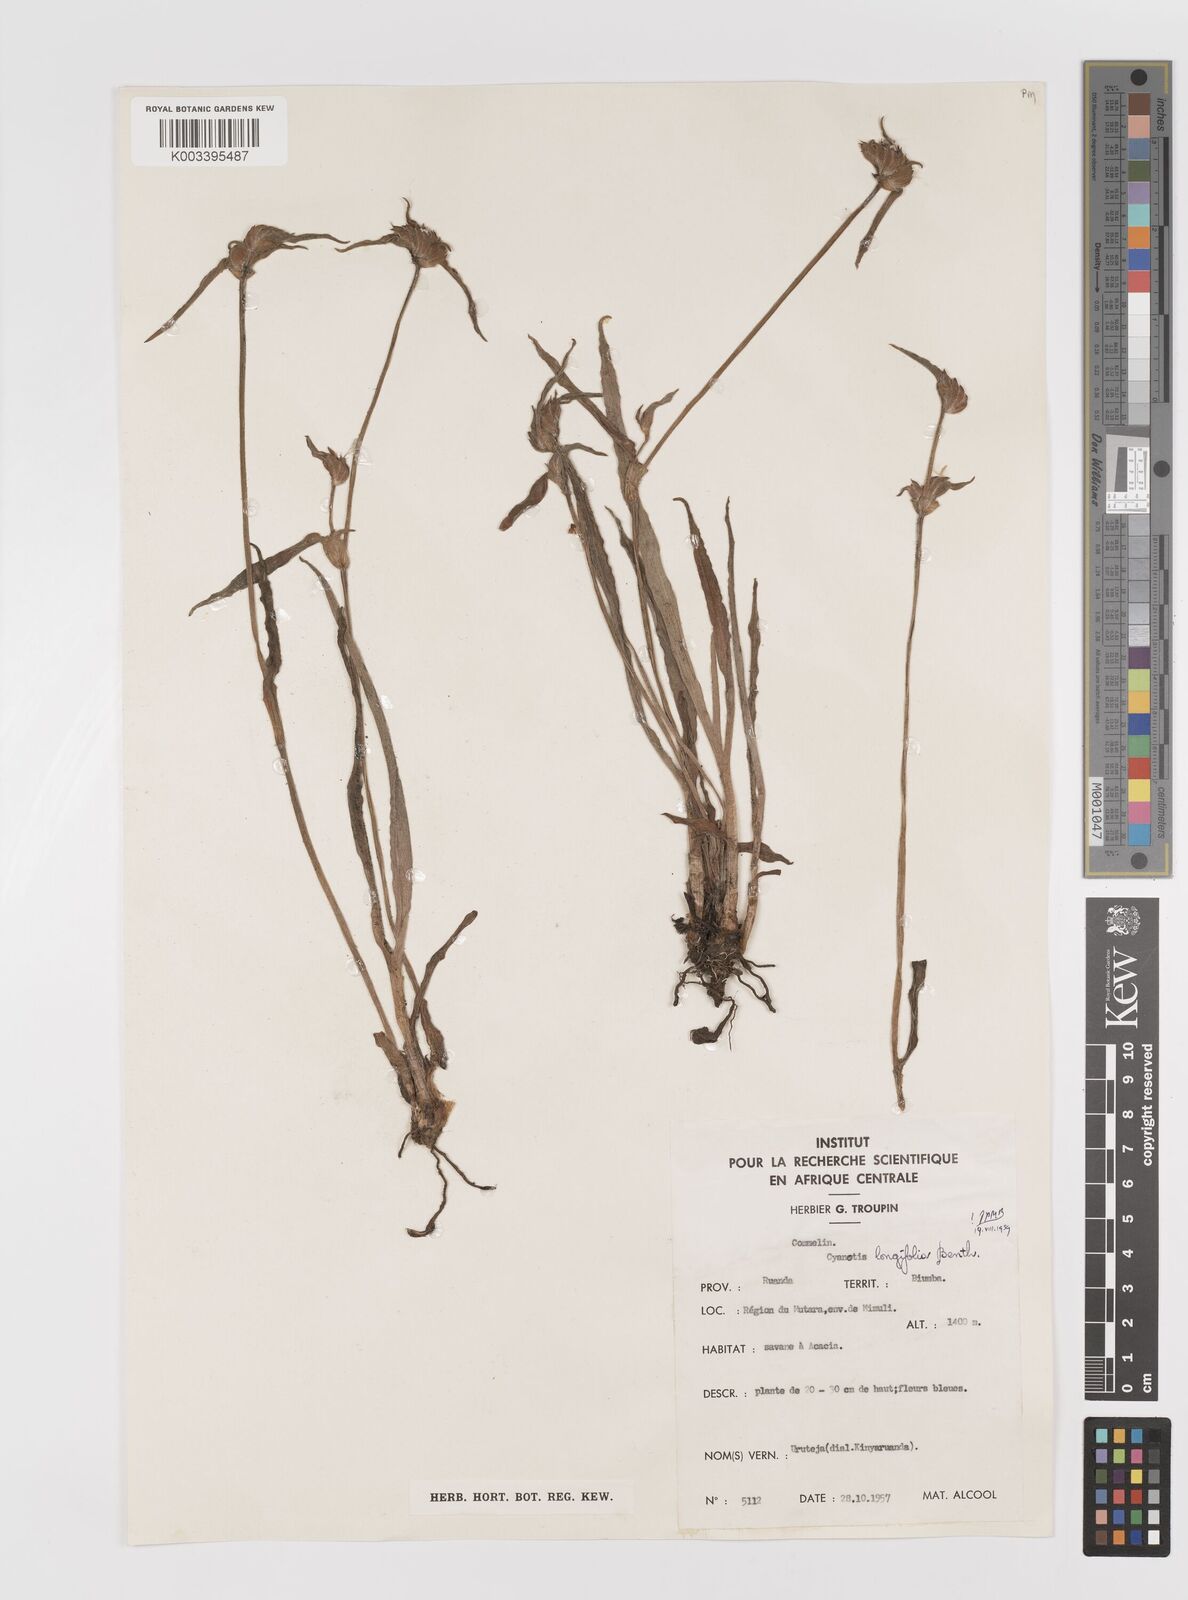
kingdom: Plantae
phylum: Tracheophyta
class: Liliopsida
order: Commelinales
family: Commelinaceae
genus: Cyanotis
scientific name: Cyanotis longifolia
